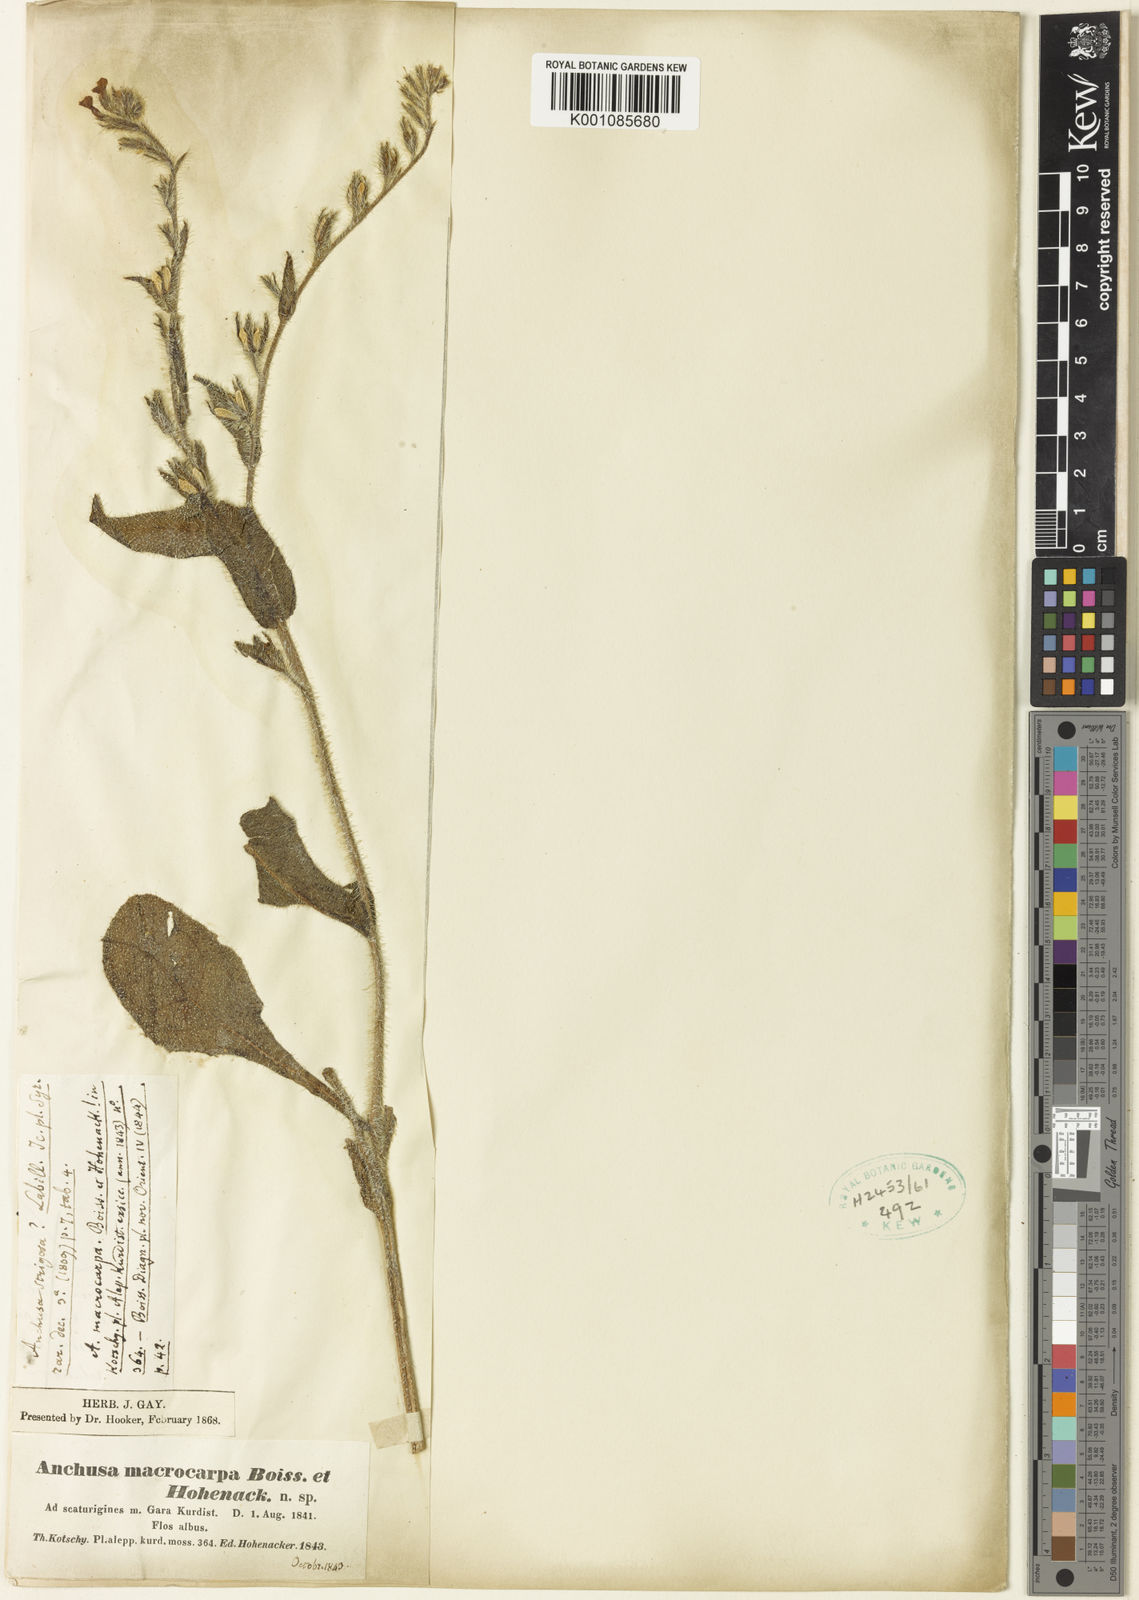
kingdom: Plantae
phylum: Tracheophyta
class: Magnoliopsida
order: Boraginales
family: Boraginaceae
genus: Anchusa
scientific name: Anchusa azurea
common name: Garden anchusa
